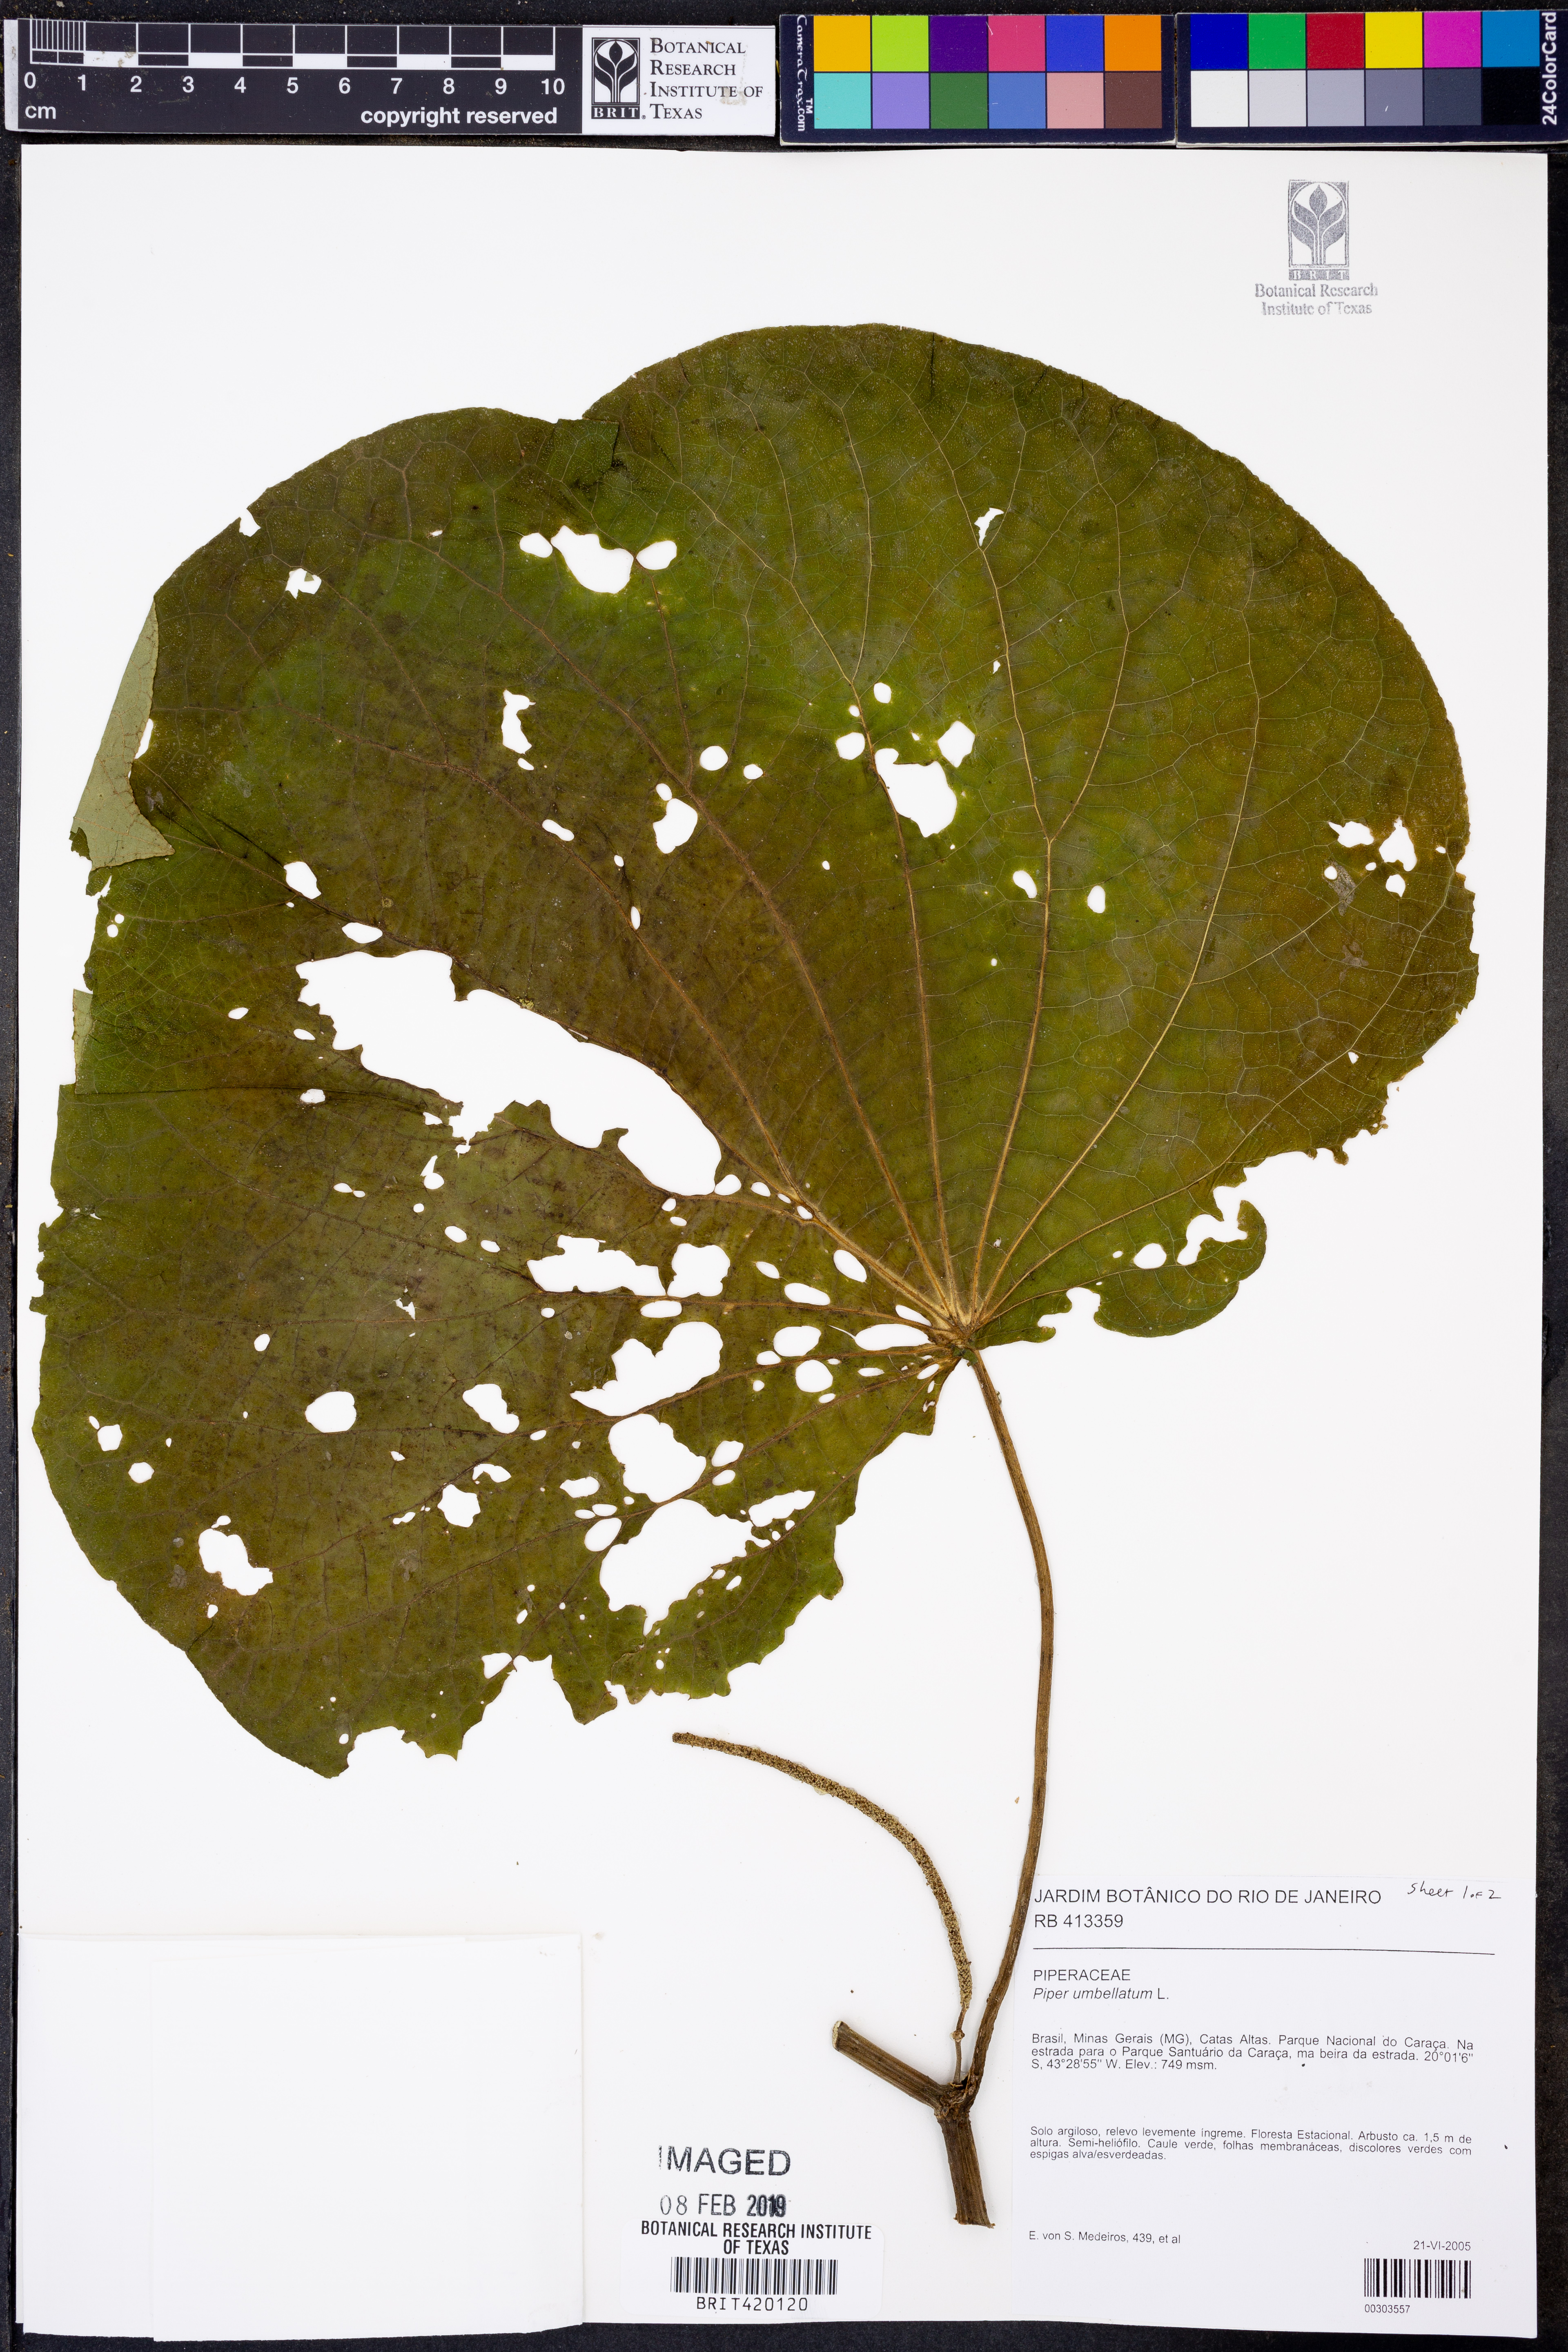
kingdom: Plantae
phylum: Tracheophyta
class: Magnoliopsida
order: Piperales
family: Piperaceae
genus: Piper
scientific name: Piper umbellatum
